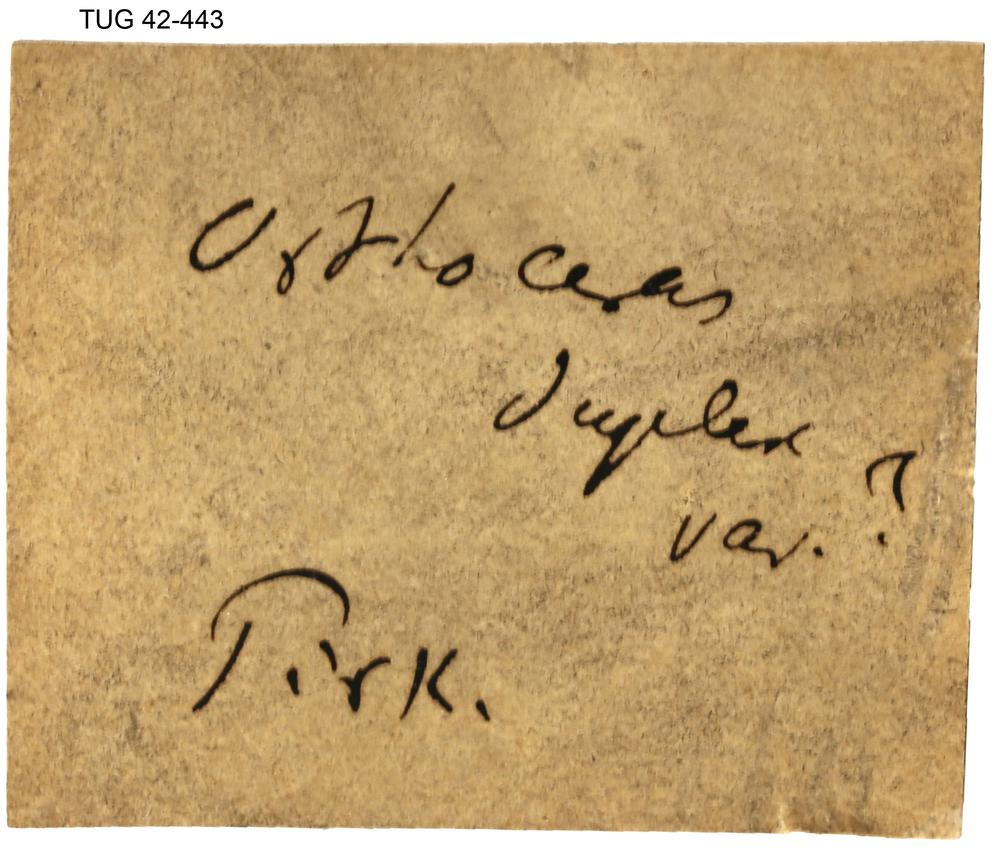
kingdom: Animalia
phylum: Mollusca
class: Cephalopoda
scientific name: Cephalopoda
